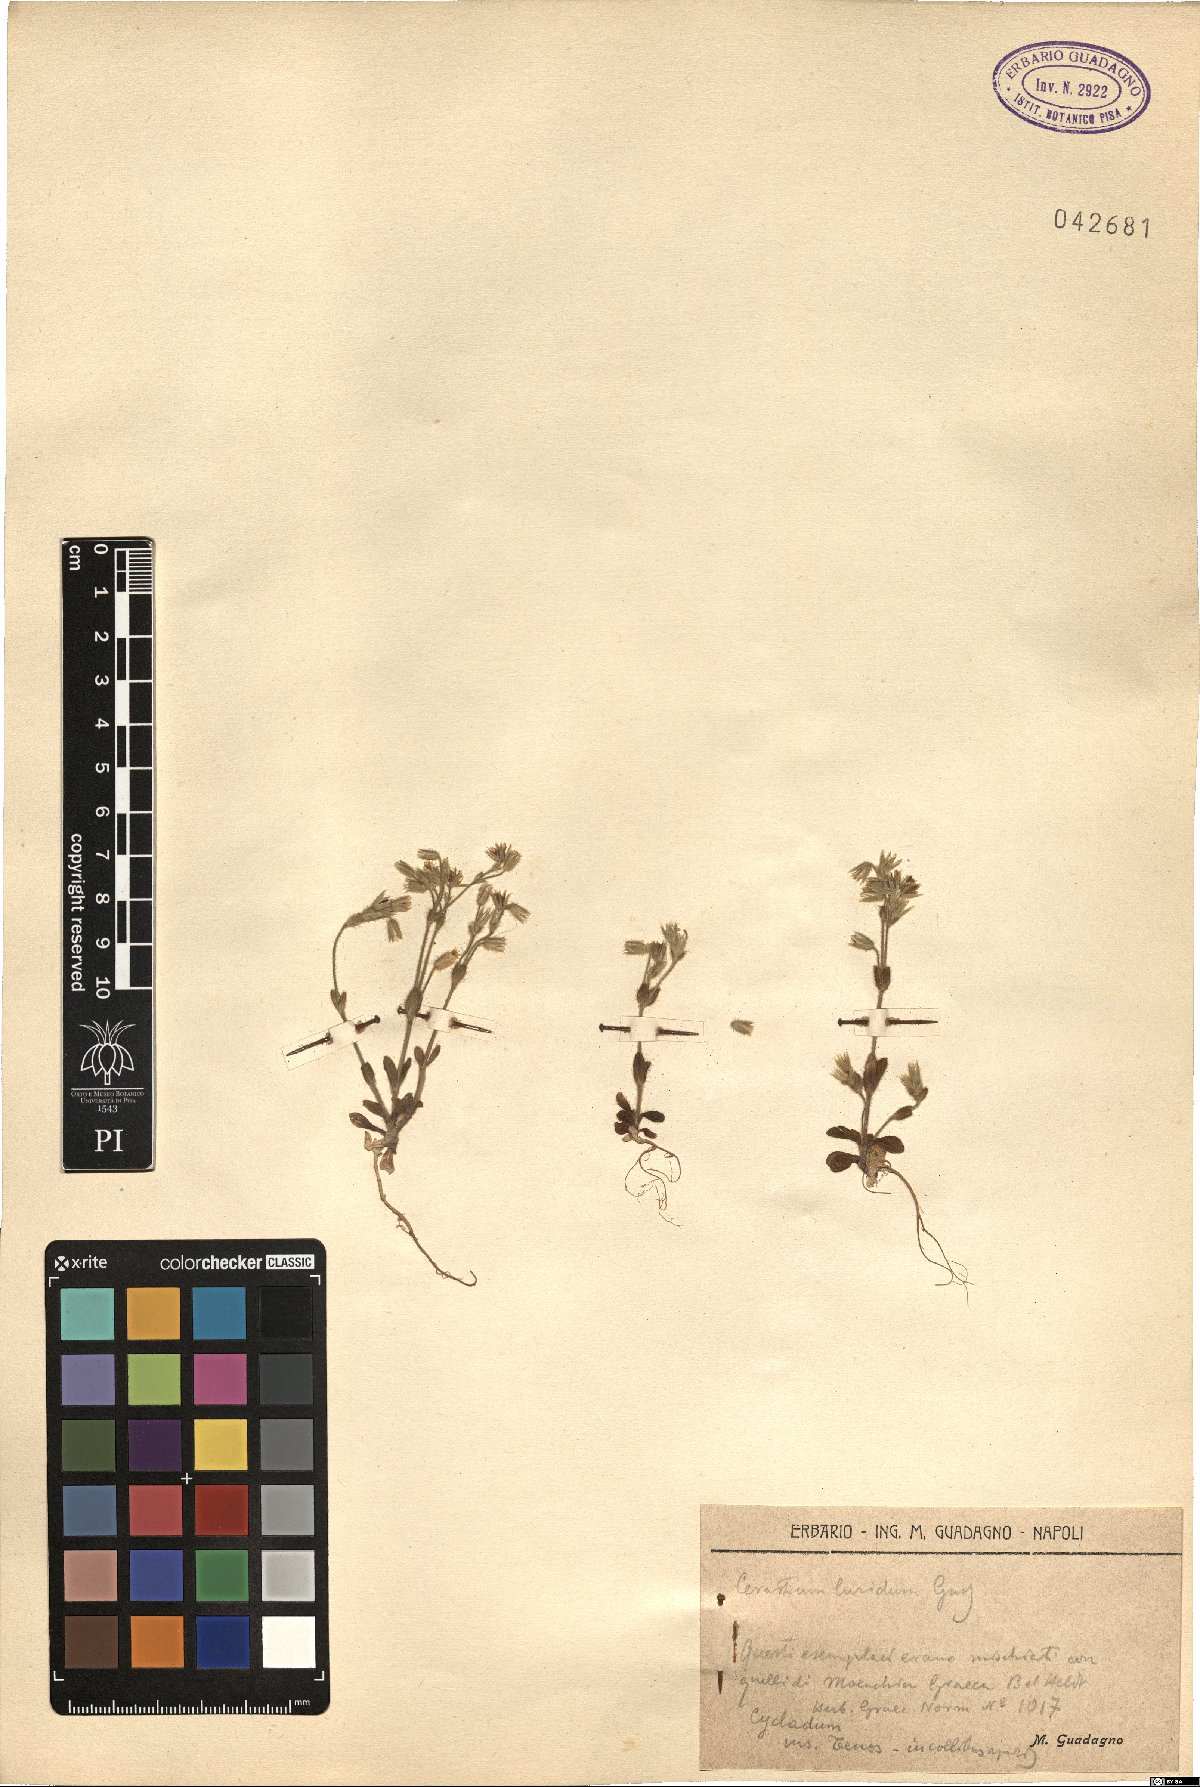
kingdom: Plantae
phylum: Tracheophyta
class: Magnoliopsida
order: Caryophyllales
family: Caryophyllaceae
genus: Cerastium
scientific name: Cerastium brachypetalum
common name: Grey mouse-ear
